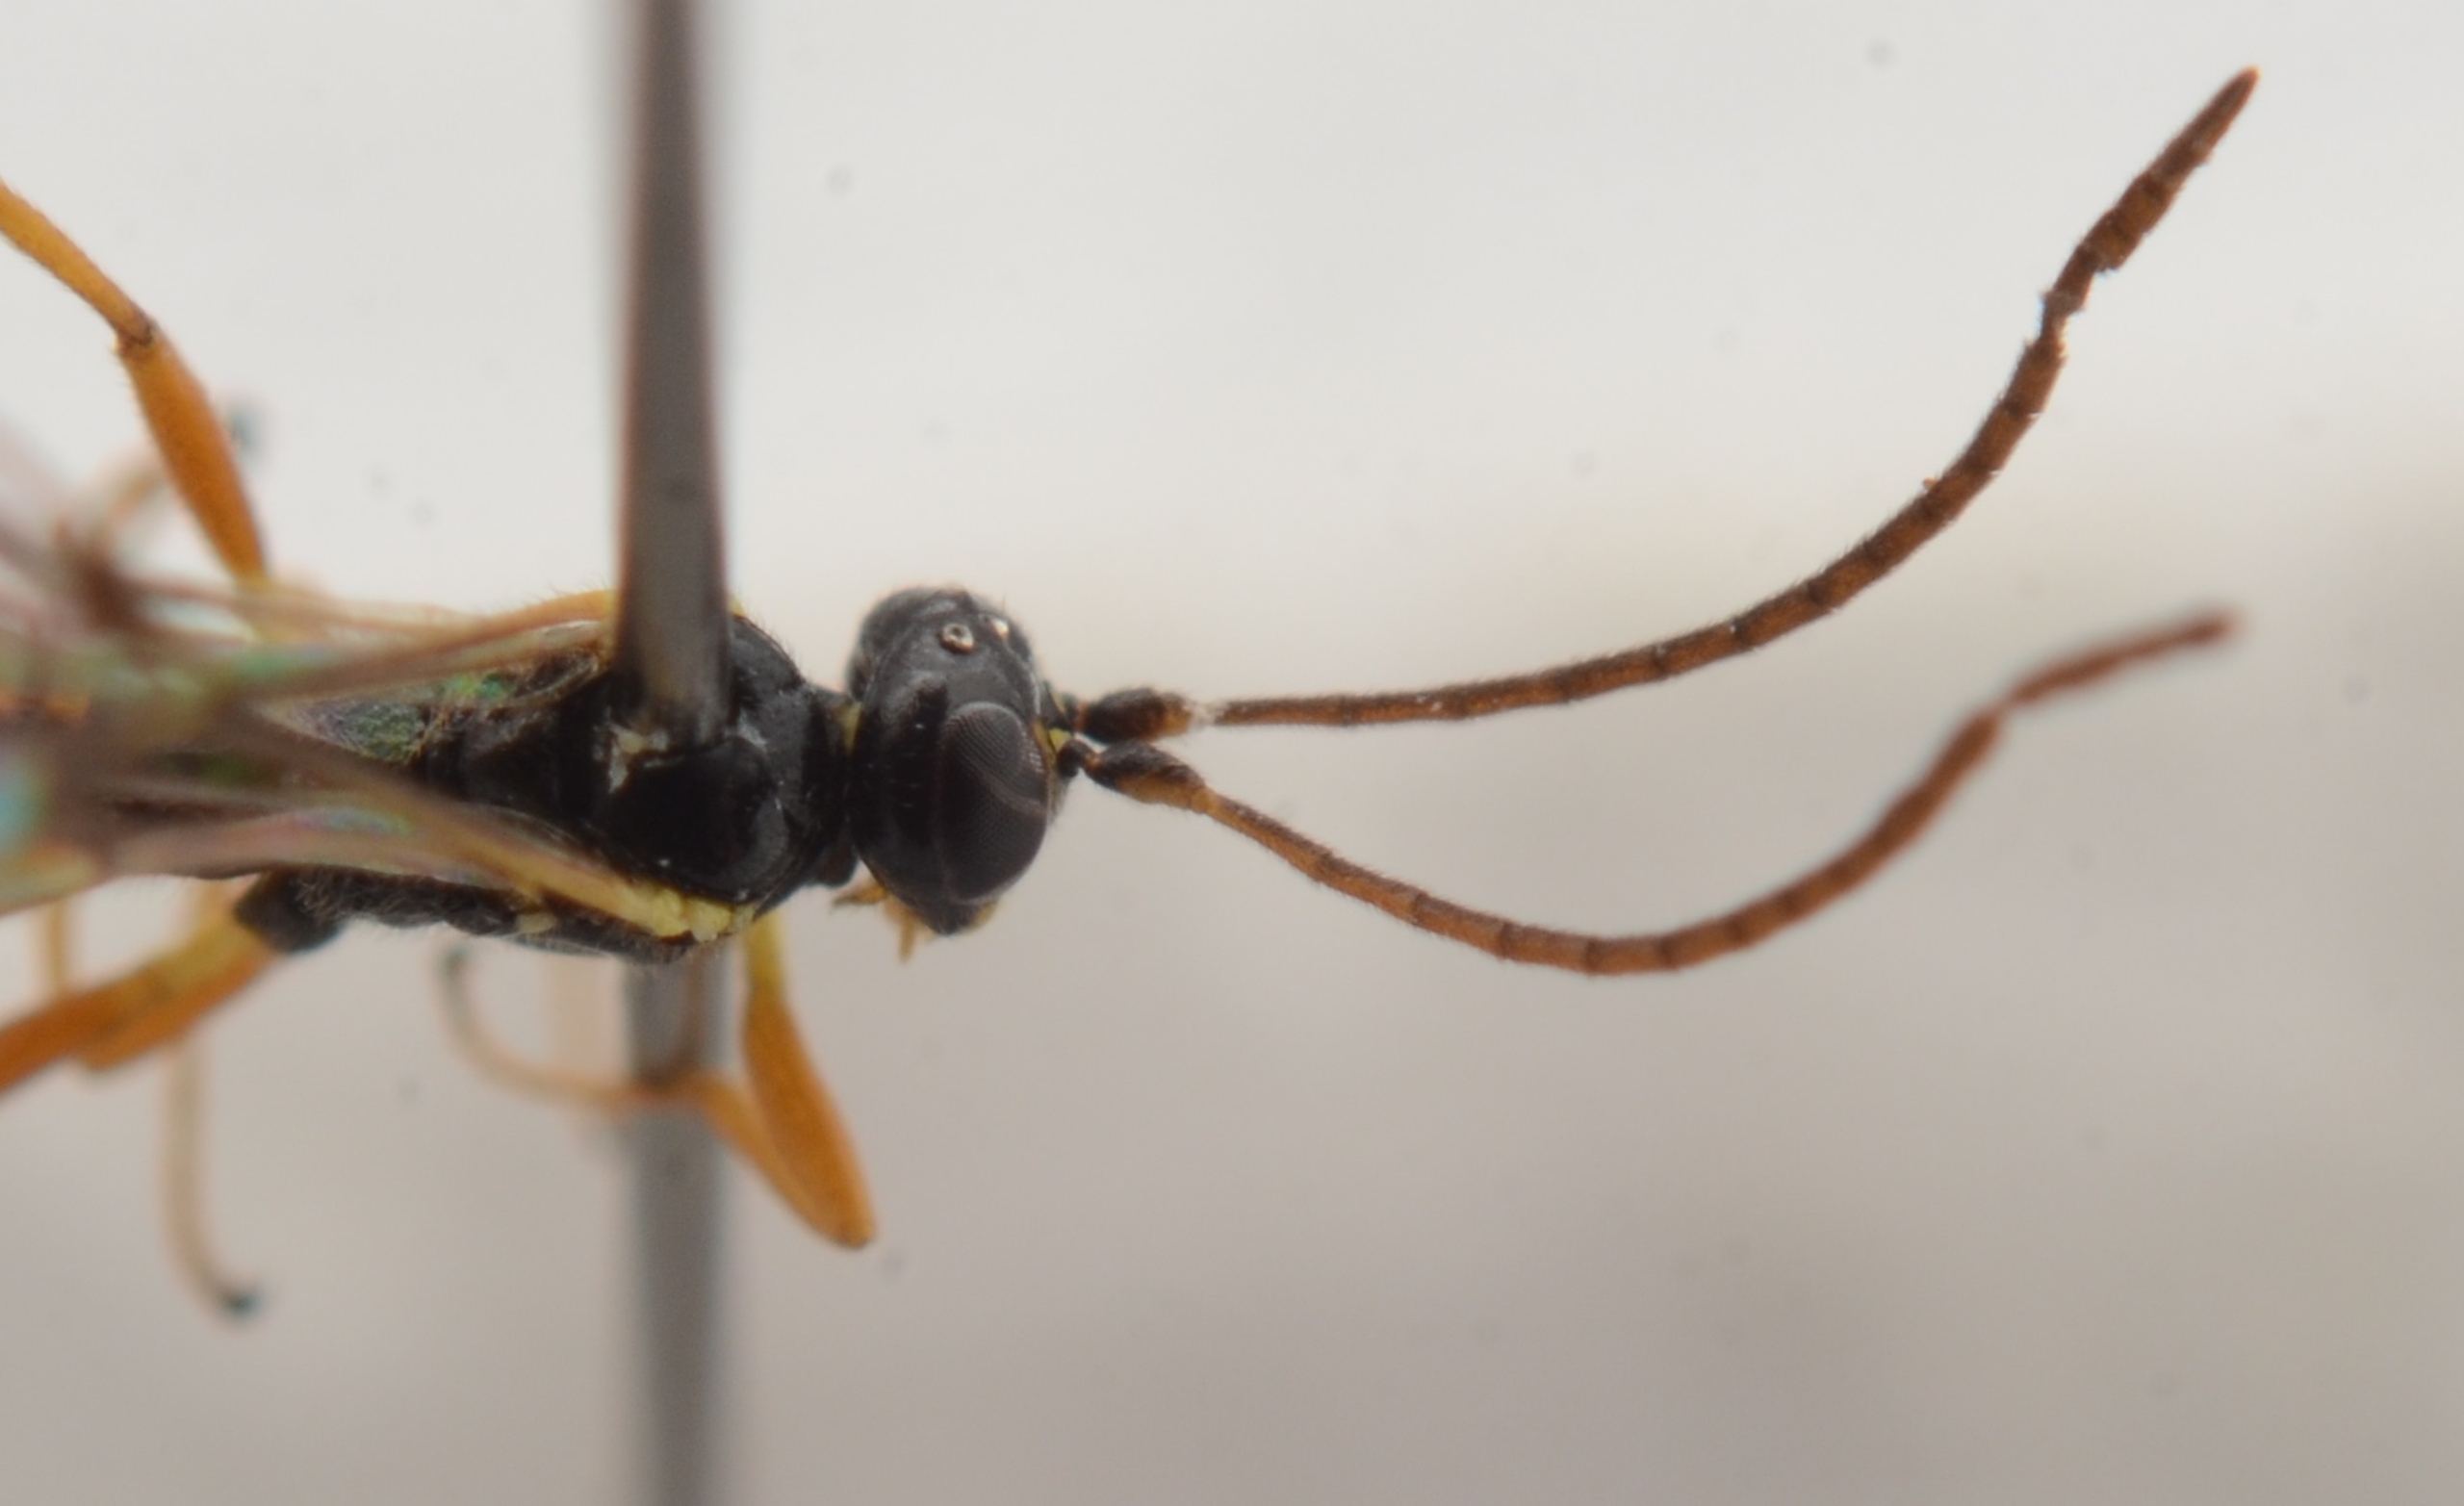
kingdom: Animalia
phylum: Arthropoda
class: Insecta
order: Hymenoptera
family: Ichneumonidae
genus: Tymmophorus
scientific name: Tymmophorus erythrozonus
